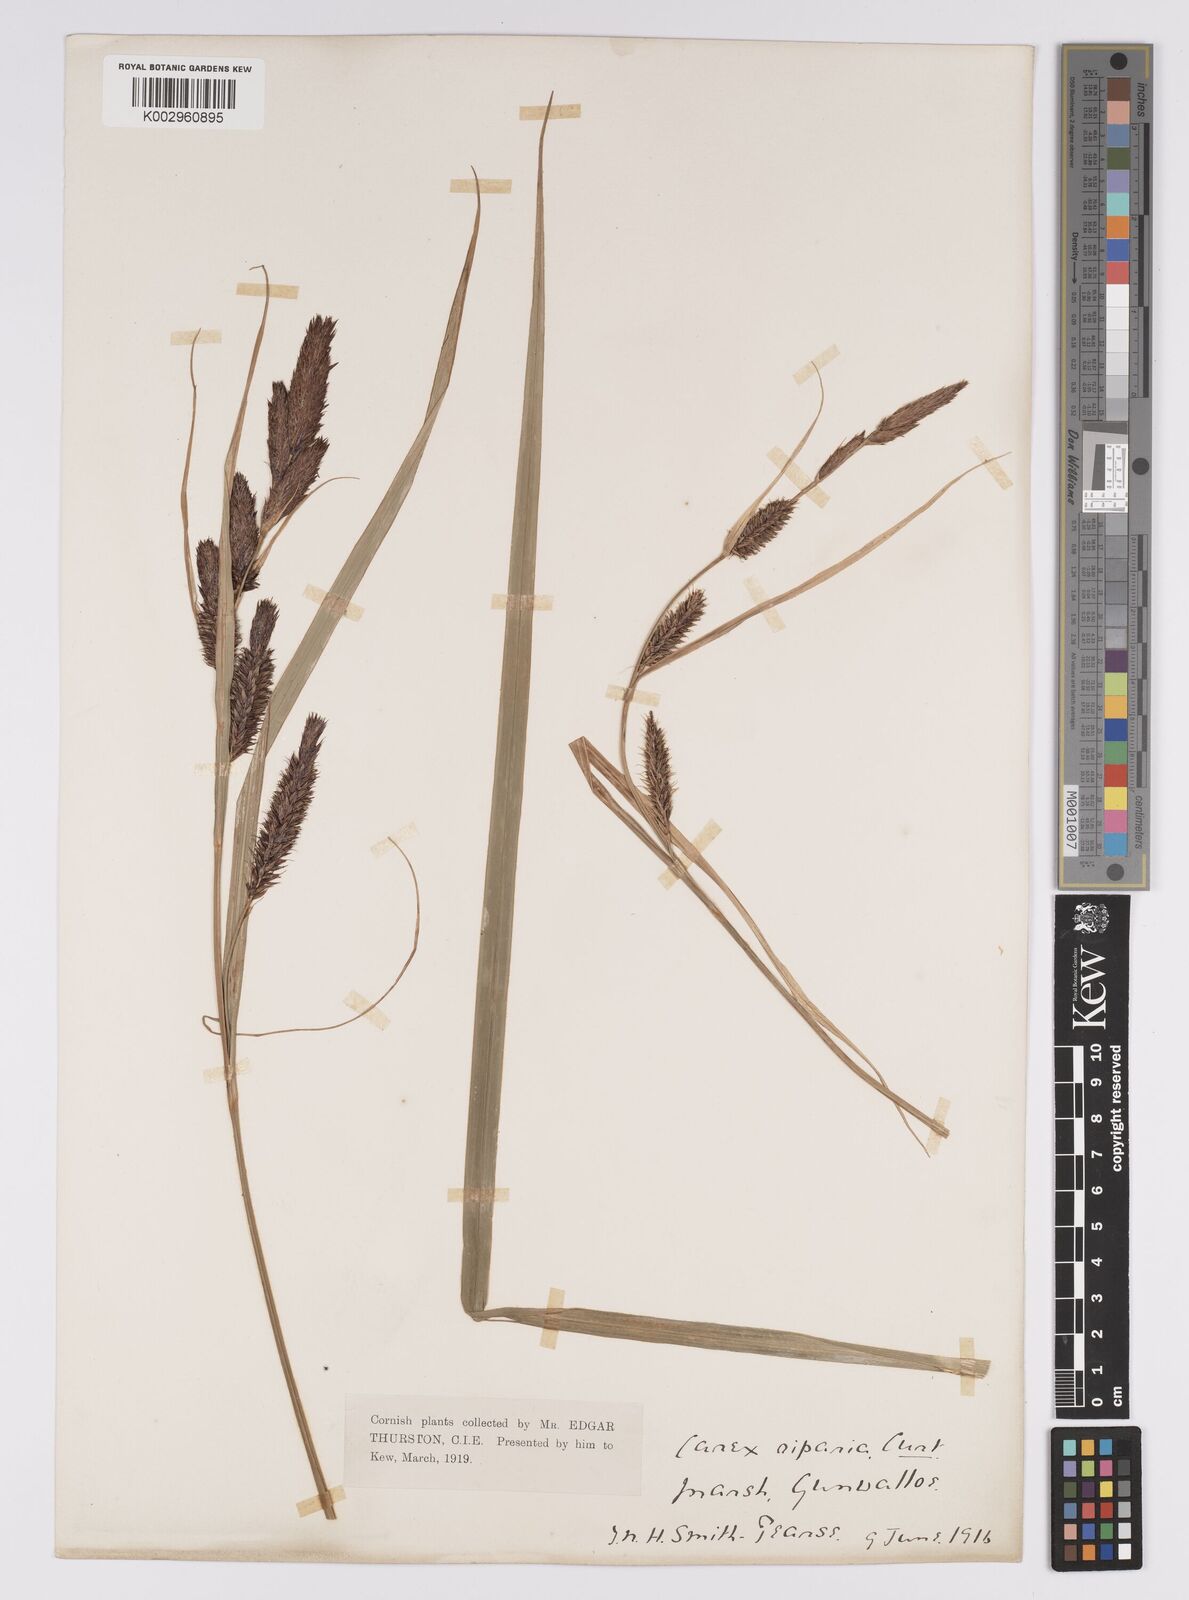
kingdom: Plantae
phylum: Tracheophyta
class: Liliopsida
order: Poales
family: Cyperaceae
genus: Carex
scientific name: Carex riparia
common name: Greater pond-sedge
